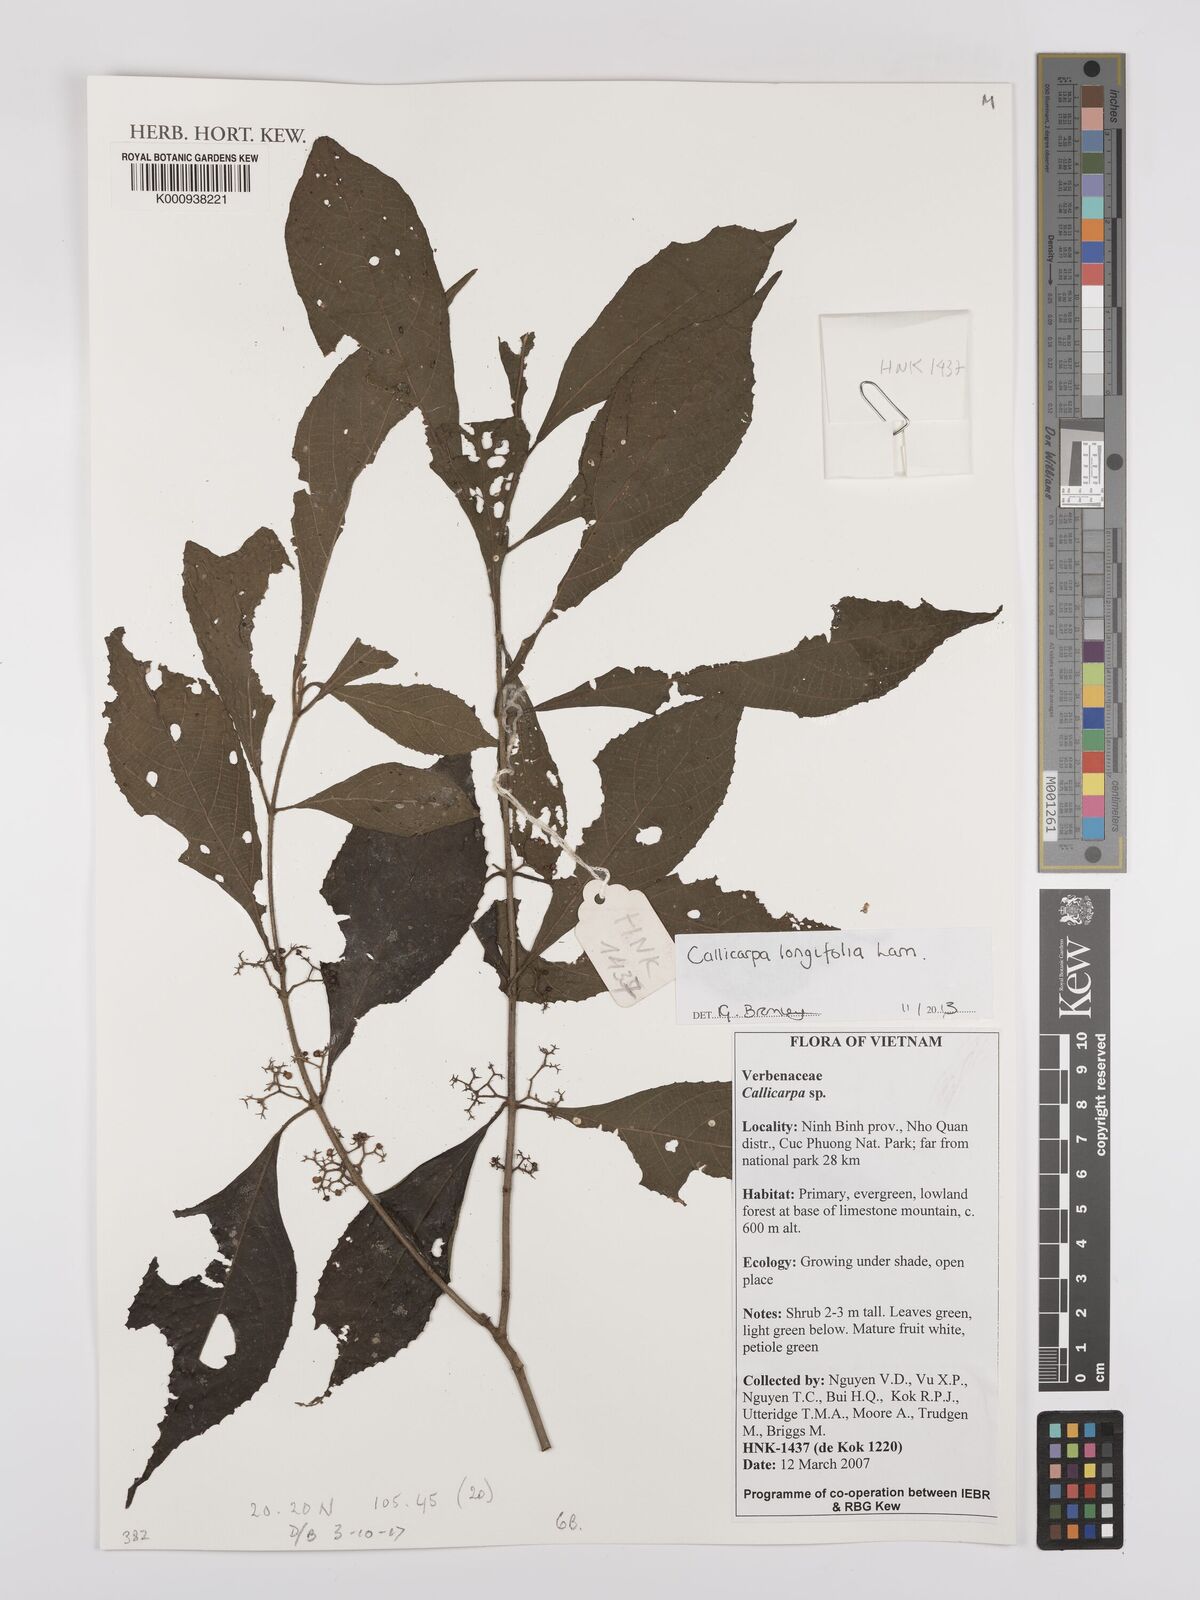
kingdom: Plantae
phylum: Tracheophyta
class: Magnoliopsida
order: Lamiales
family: Lamiaceae
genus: Callicarpa
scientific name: Callicarpa longifolia
